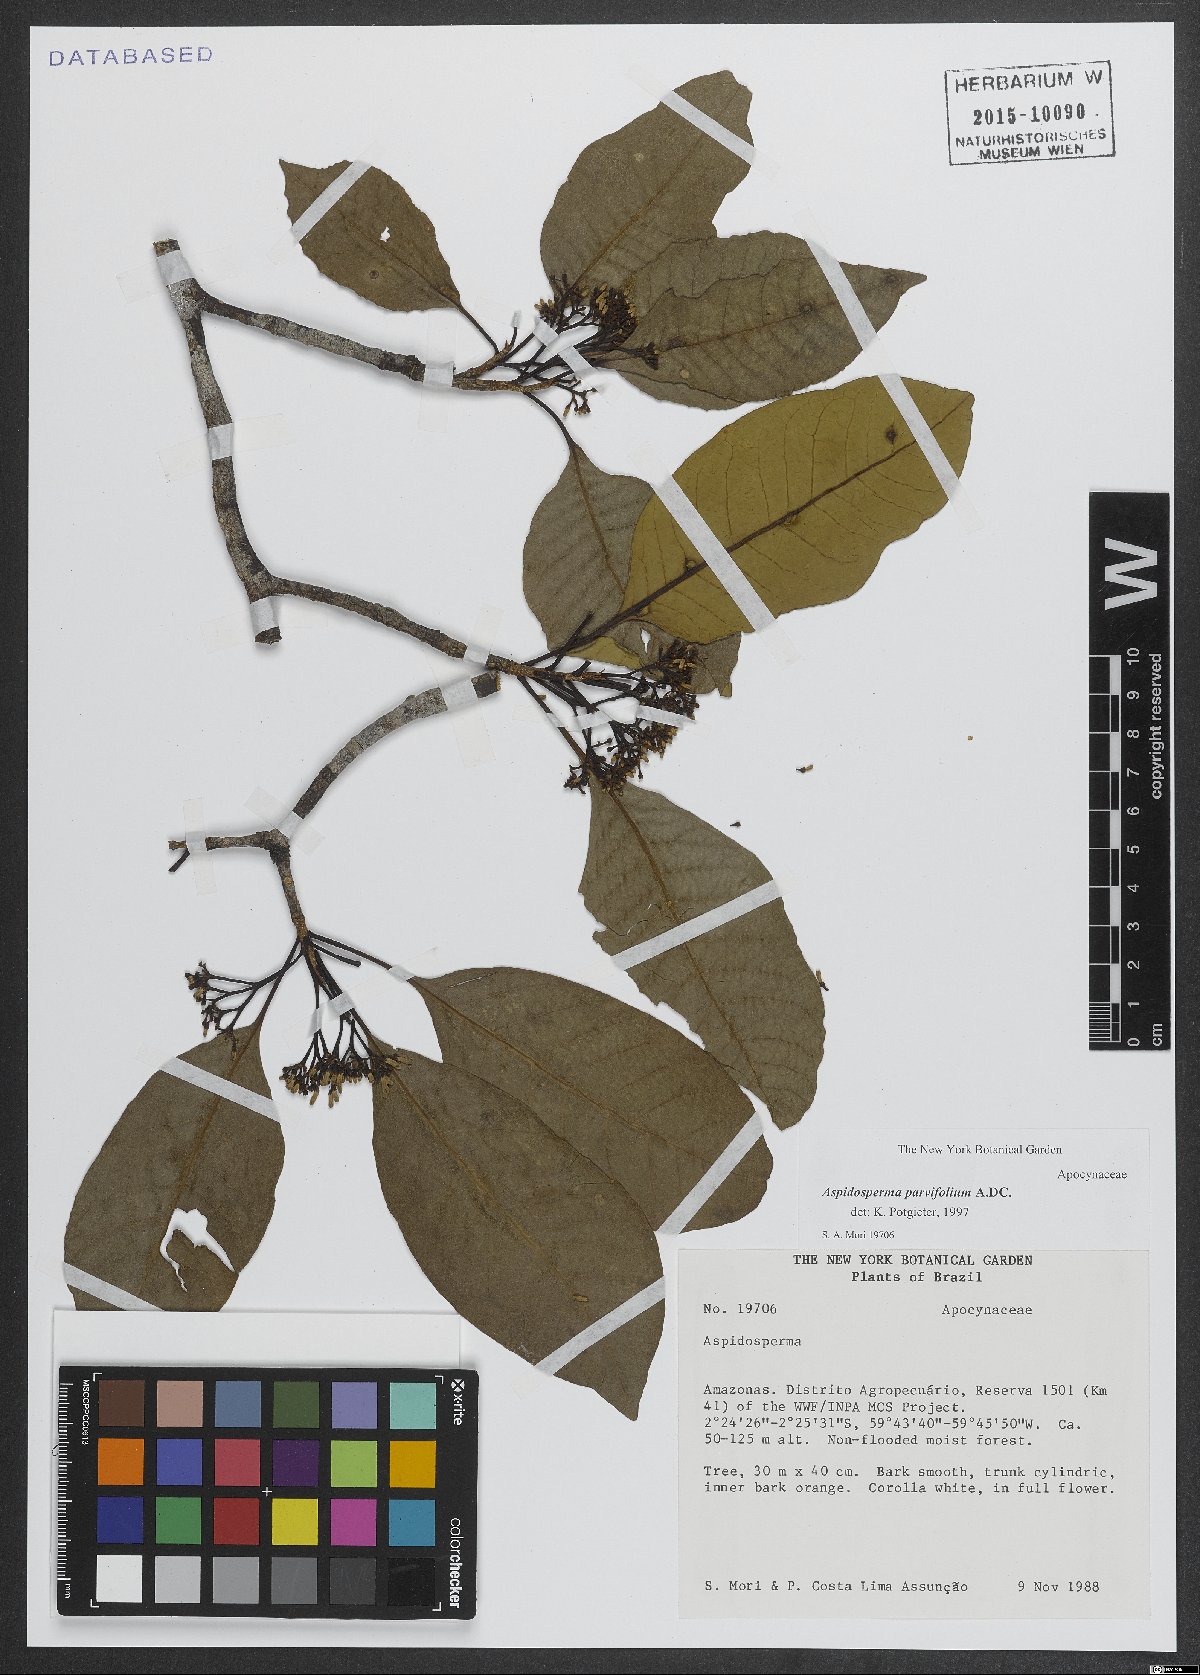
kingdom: Plantae
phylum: Tracheophyta
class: Magnoliopsida
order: Gentianales
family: Apocynaceae
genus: Aspidosperma
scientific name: Aspidosperma parvifolium
